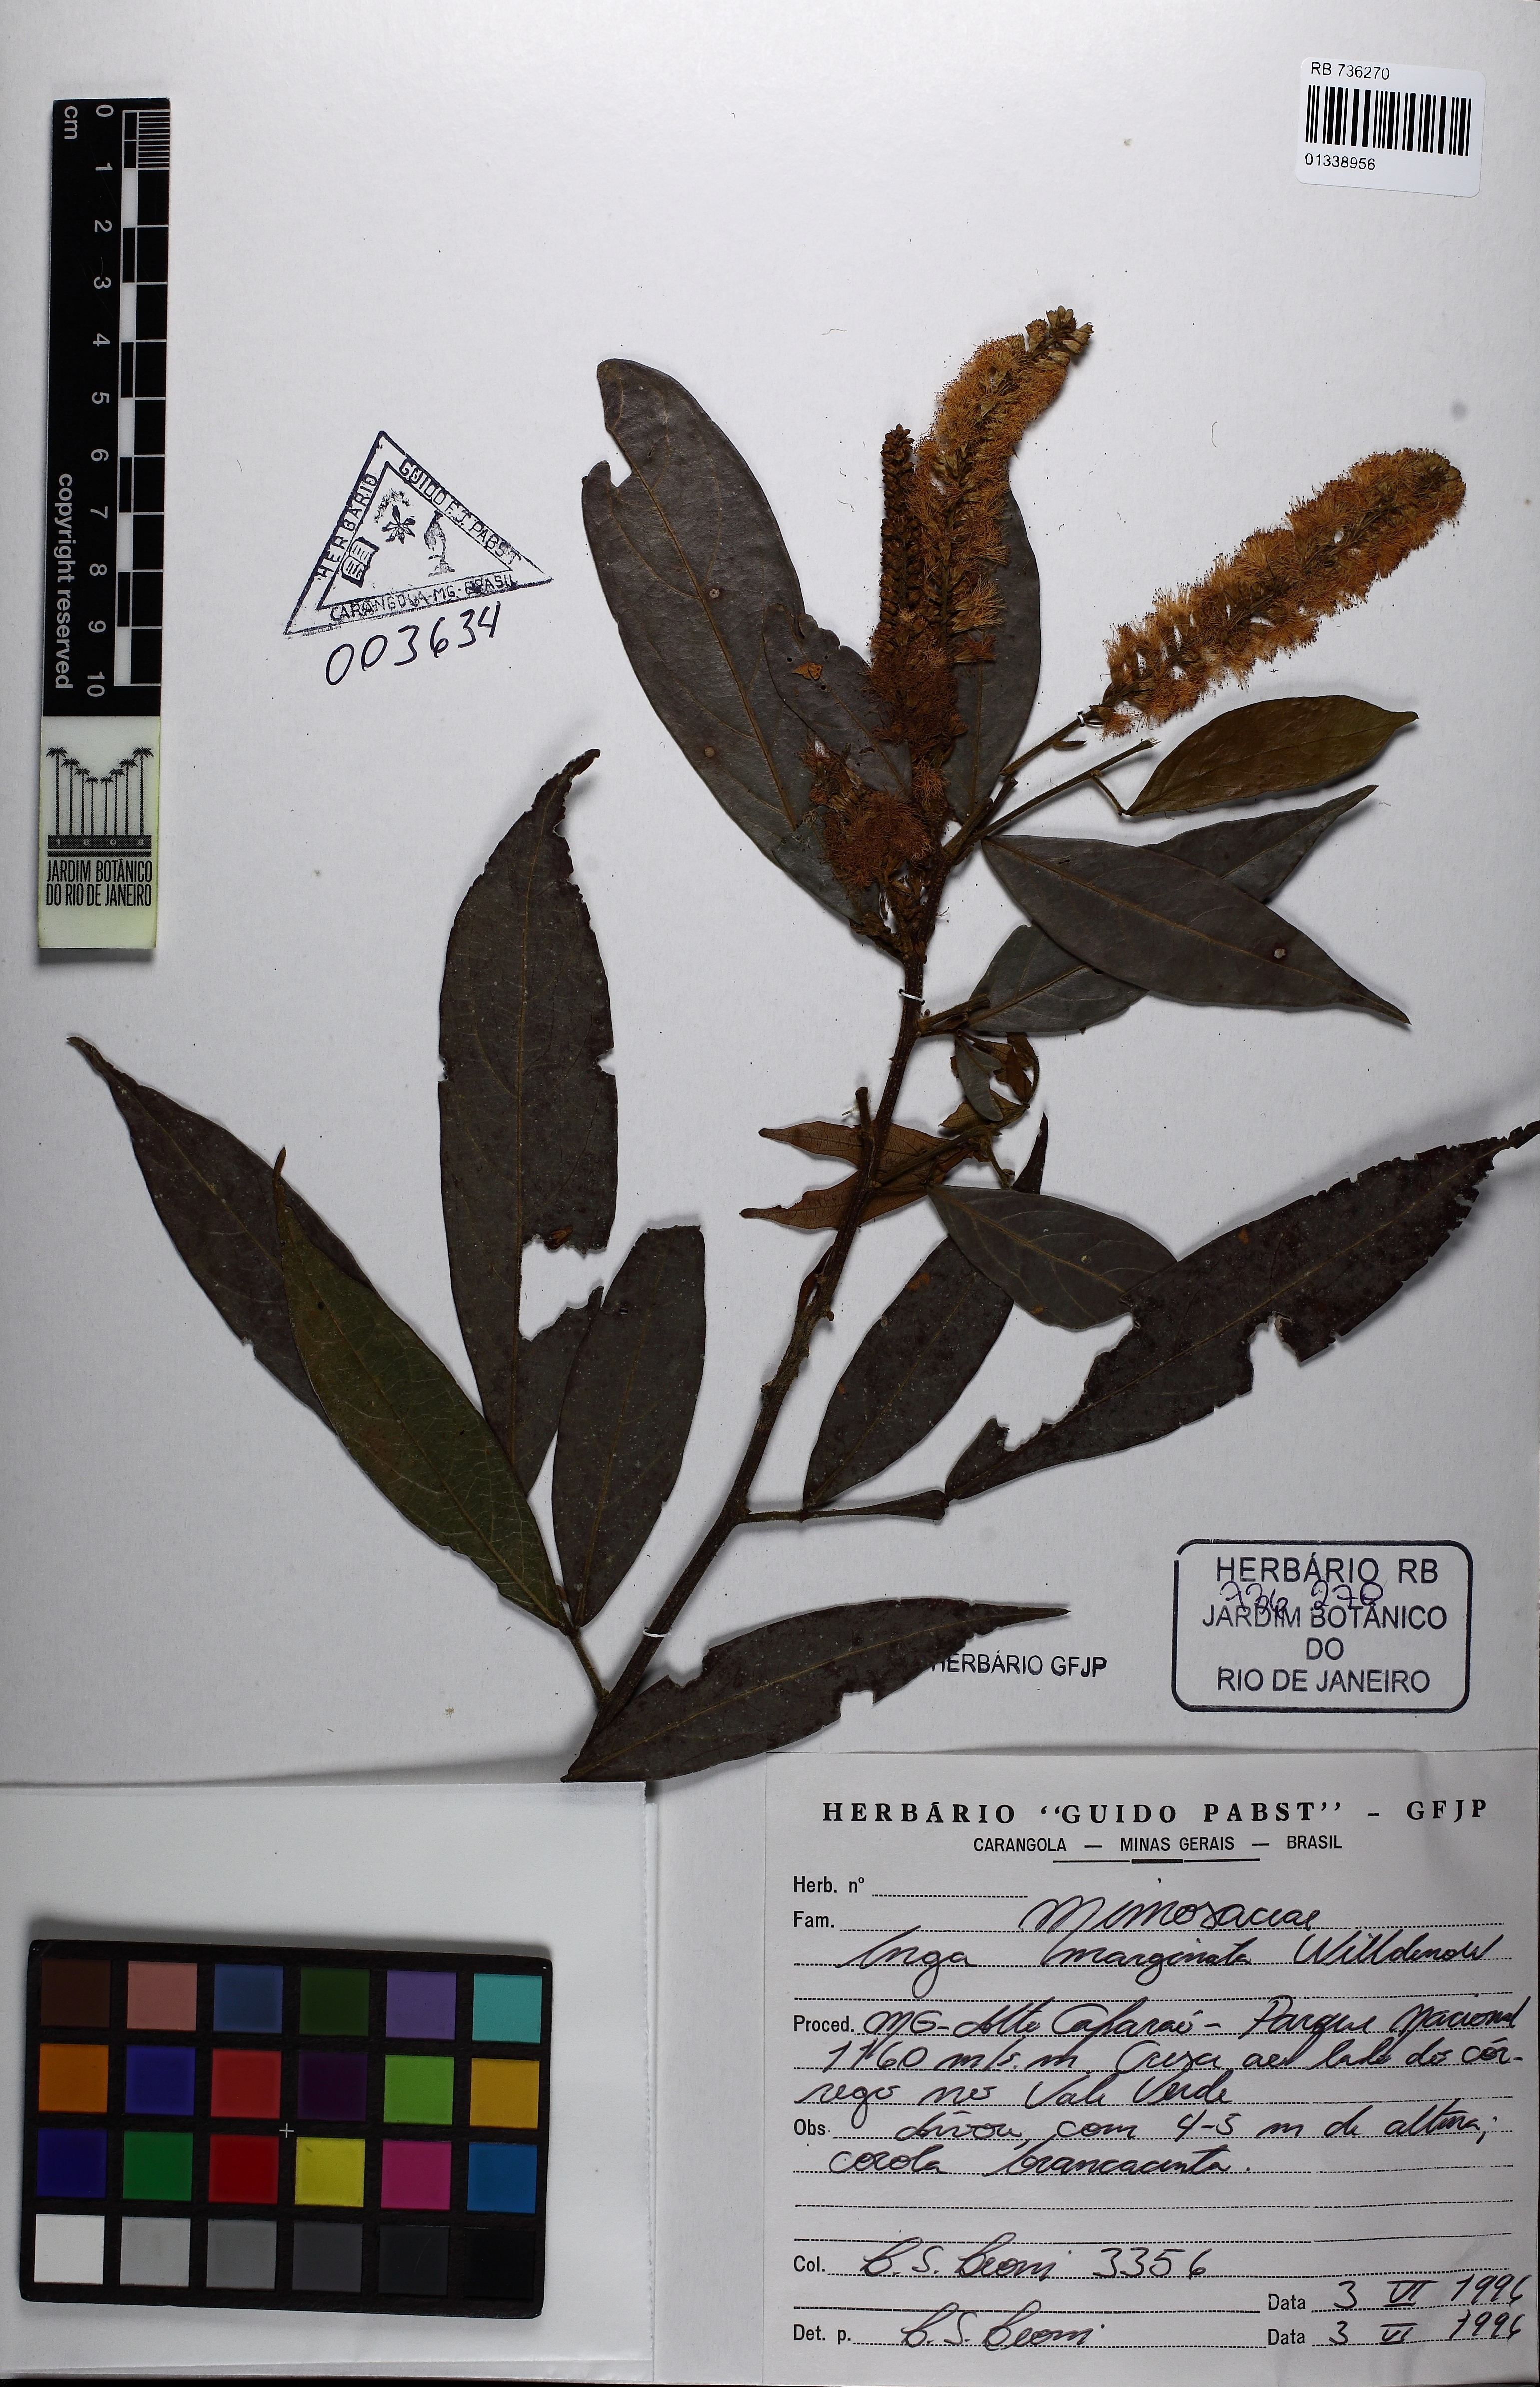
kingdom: Plantae
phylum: Tracheophyta
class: Magnoliopsida
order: Fabales
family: Fabaceae
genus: Inga
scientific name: Inga marginata
